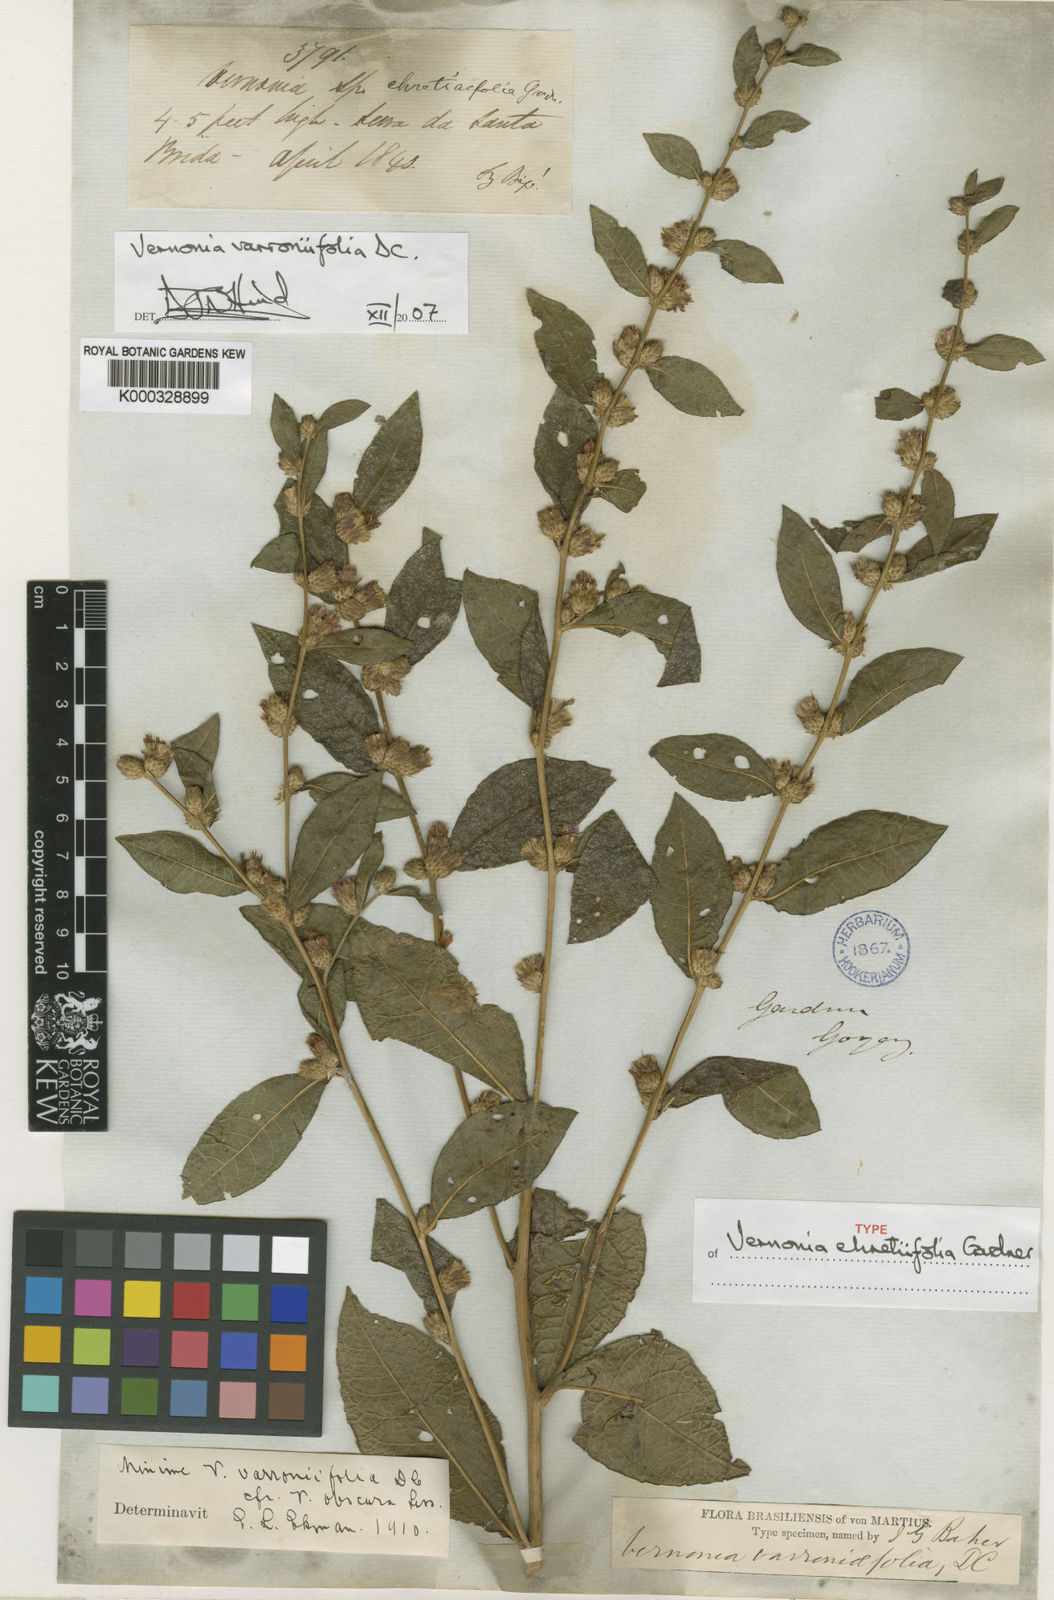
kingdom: Plantae
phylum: Tracheophyta
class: Magnoliopsida
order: Asterales
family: Asteraceae
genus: Lessingianthus
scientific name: Lessingianthus varroniifolius
